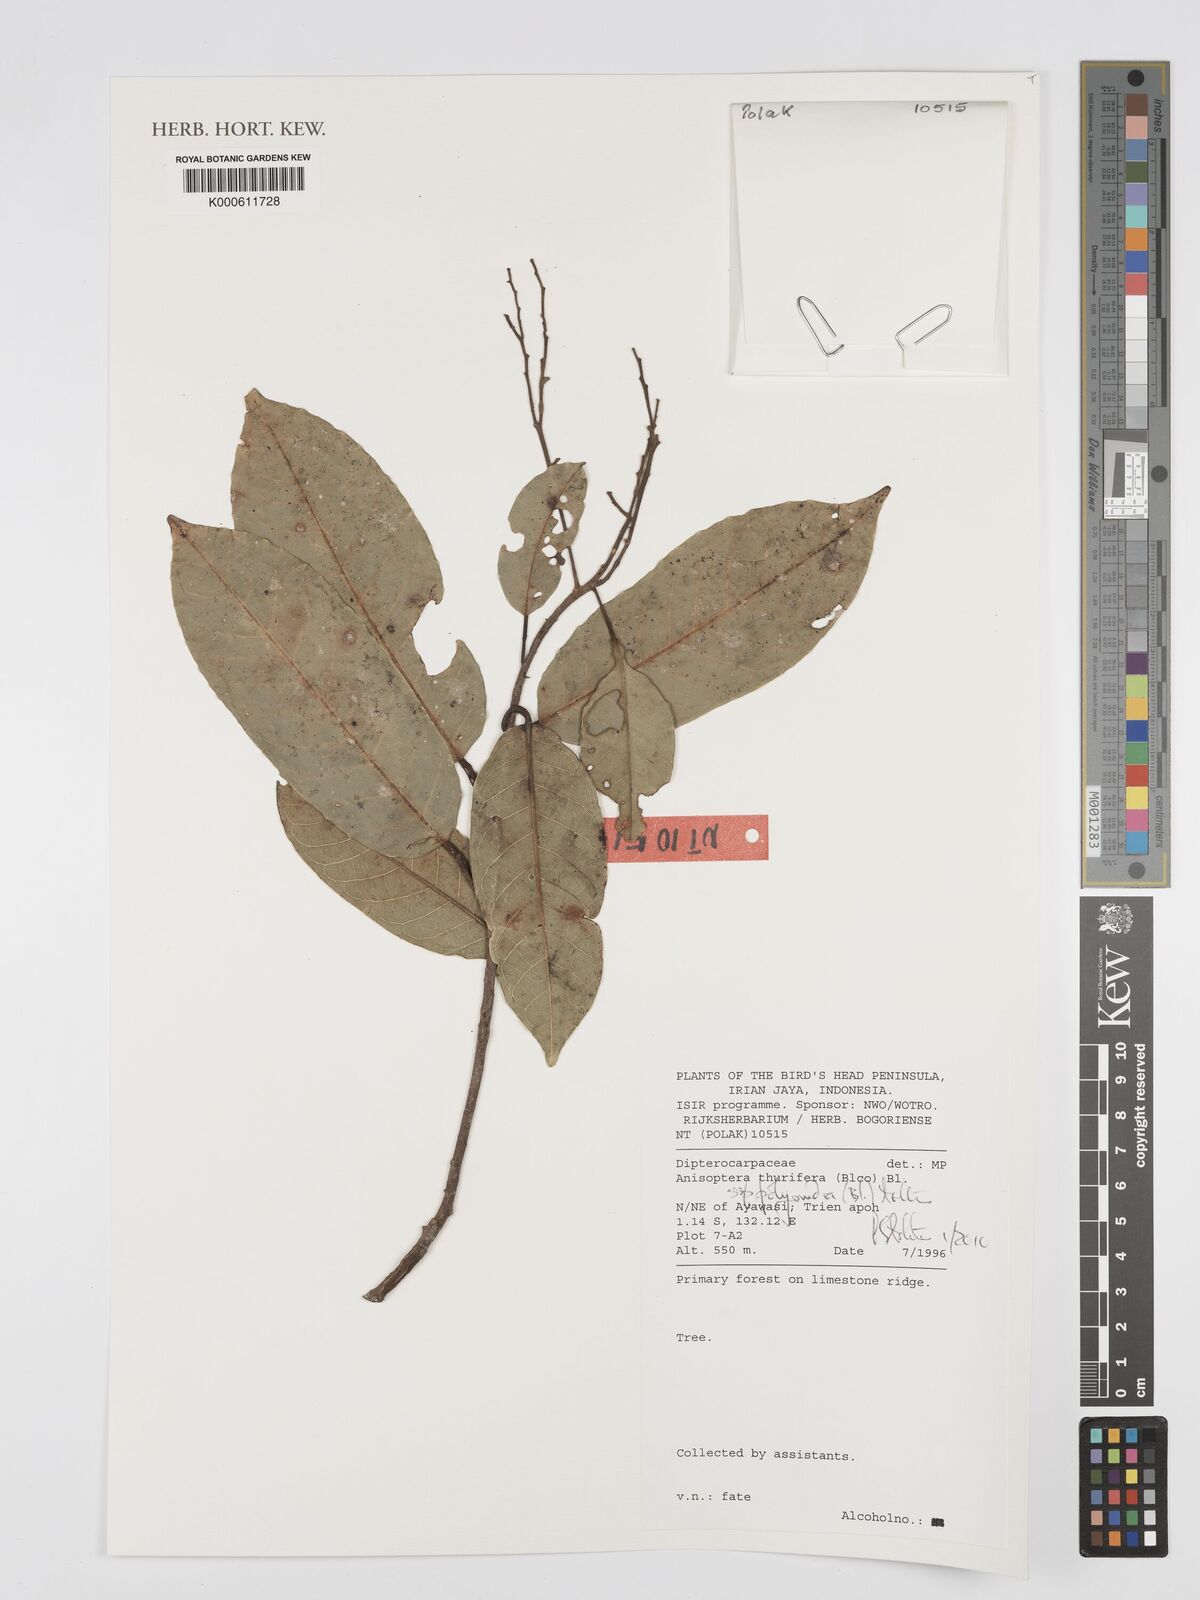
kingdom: Plantae
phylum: Tracheophyta
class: Magnoliopsida
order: Malvales
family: Dipterocarpaceae
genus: Anisoptera
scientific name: Anisoptera thurifera
